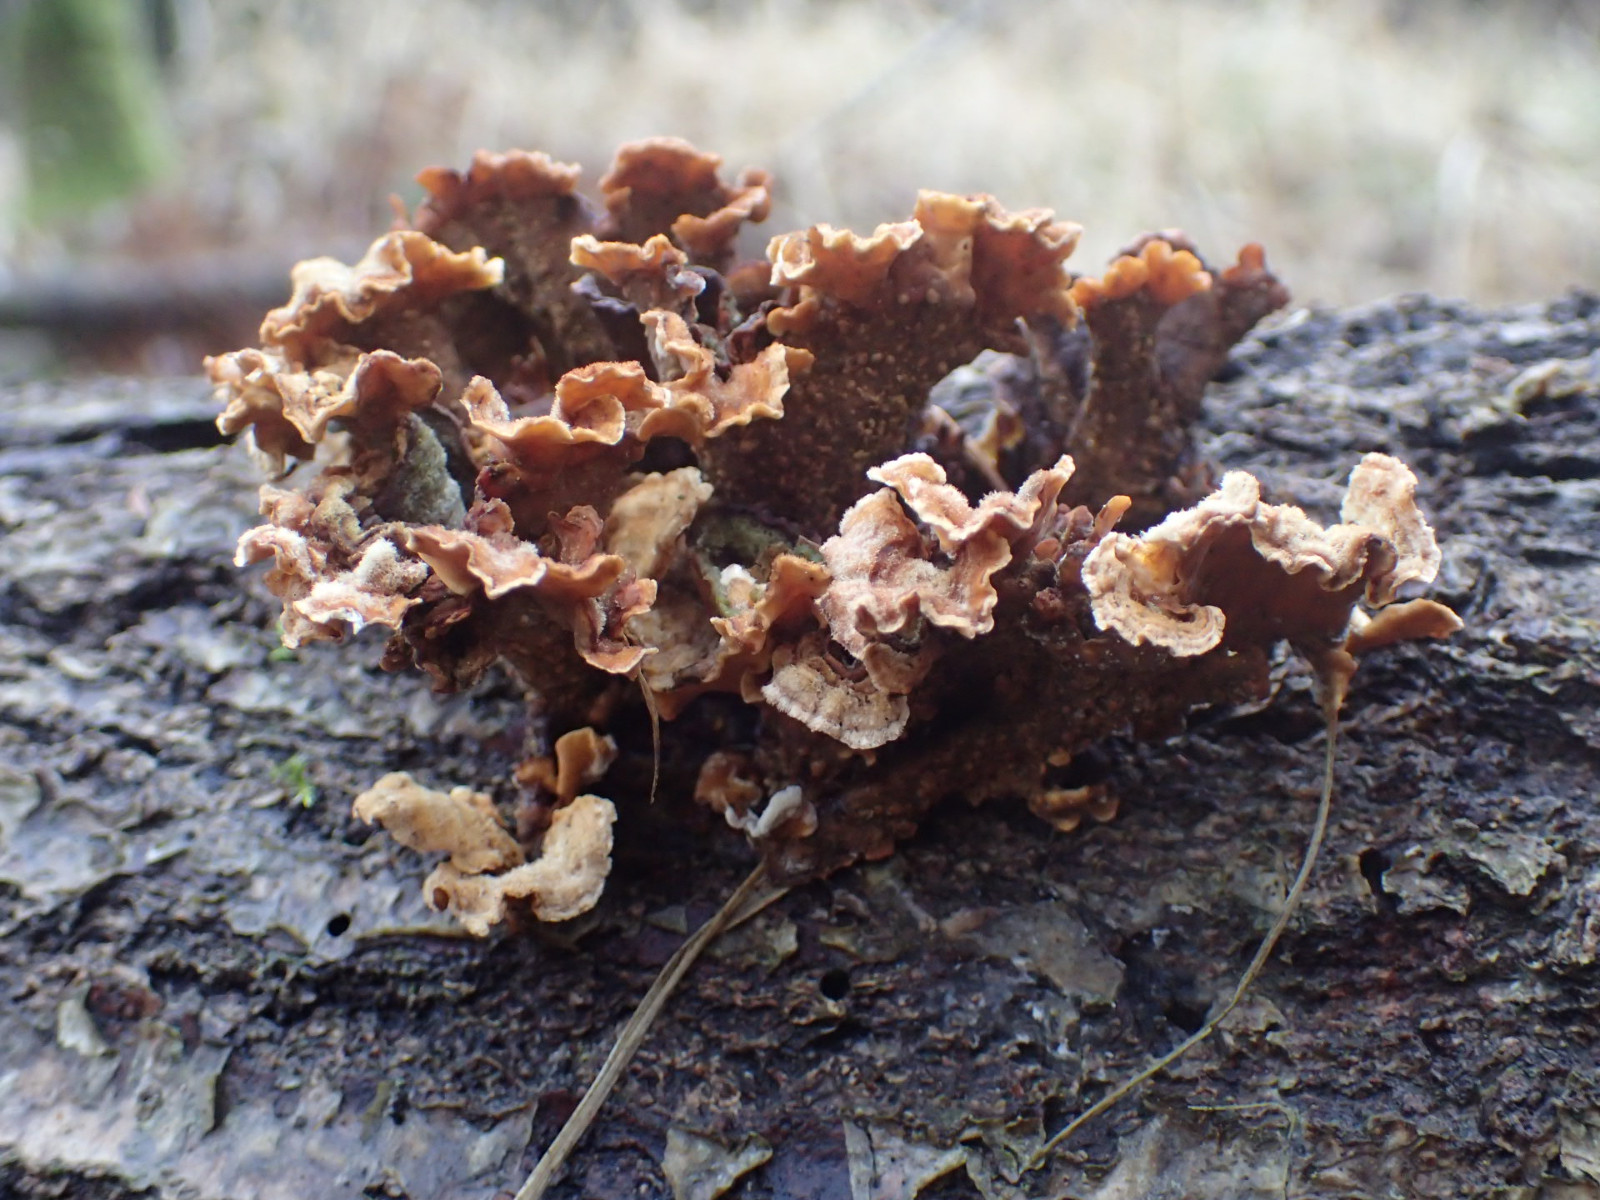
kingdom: Fungi
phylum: Basidiomycota
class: Agaricomycetes
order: Russulales
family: Stereaceae
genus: Stereum
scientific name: Stereum hirsutum
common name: håret lædersvamp
